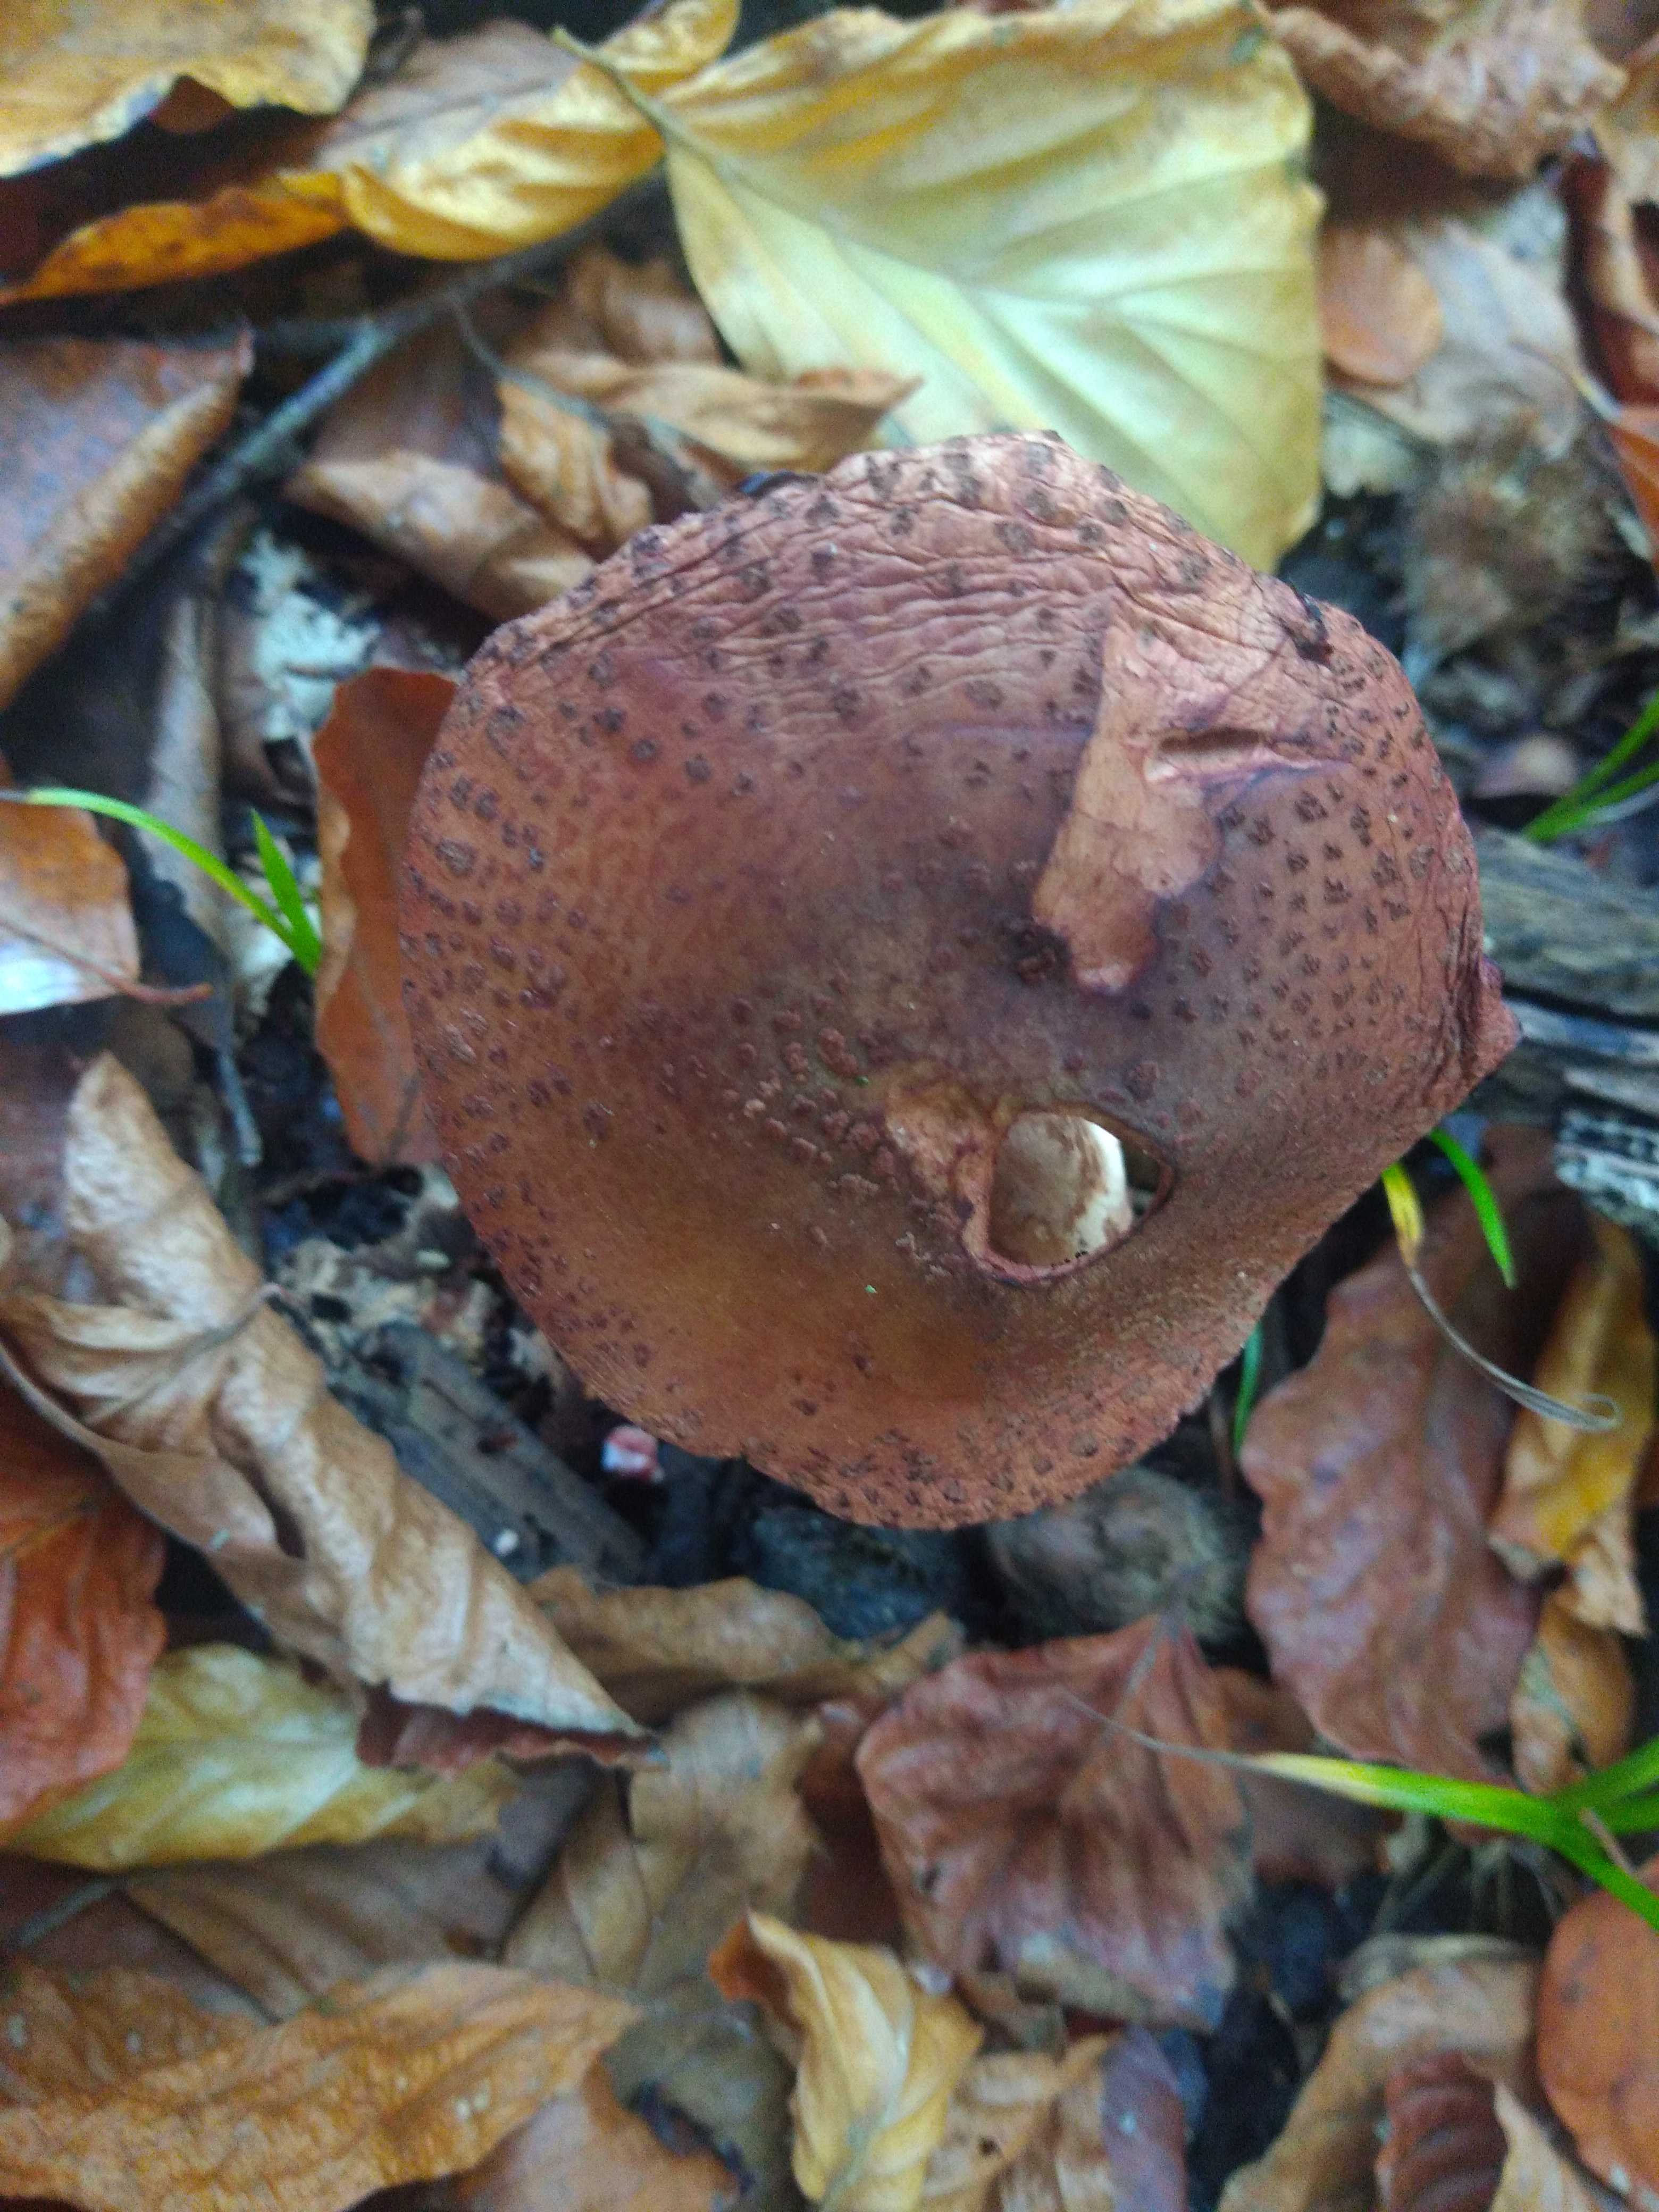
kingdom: Fungi
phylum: Basidiomycota
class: Agaricomycetes
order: Agaricales
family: Amanitaceae
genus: Amanita
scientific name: Amanita rubescens
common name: rødmende fluesvamp
